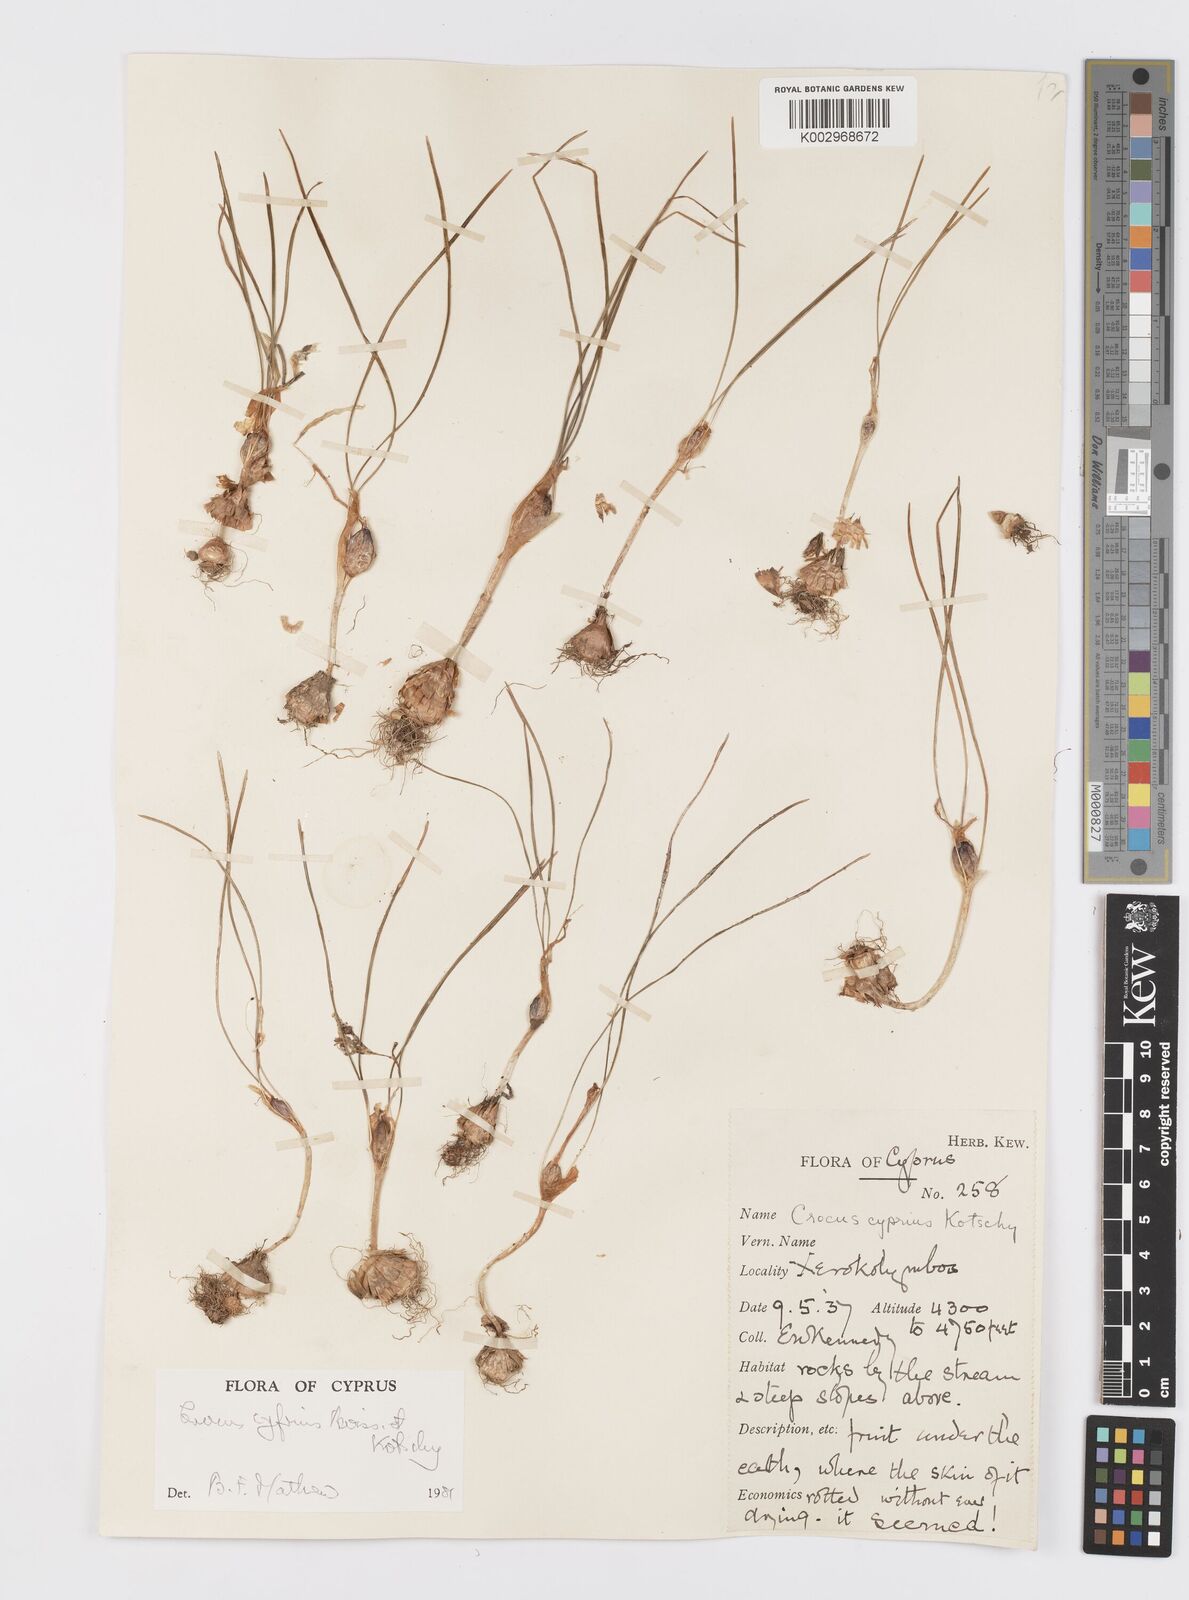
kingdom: Plantae
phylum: Tracheophyta
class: Liliopsida
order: Asparagales
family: Iridaceae
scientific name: Iridaceae
